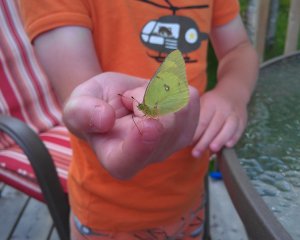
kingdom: Animalia
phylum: Arthropoda
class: Insecta
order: Lepidoptera
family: Pieridae
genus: Colias
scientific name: Colias eurytheme
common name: Orange Sulphur
